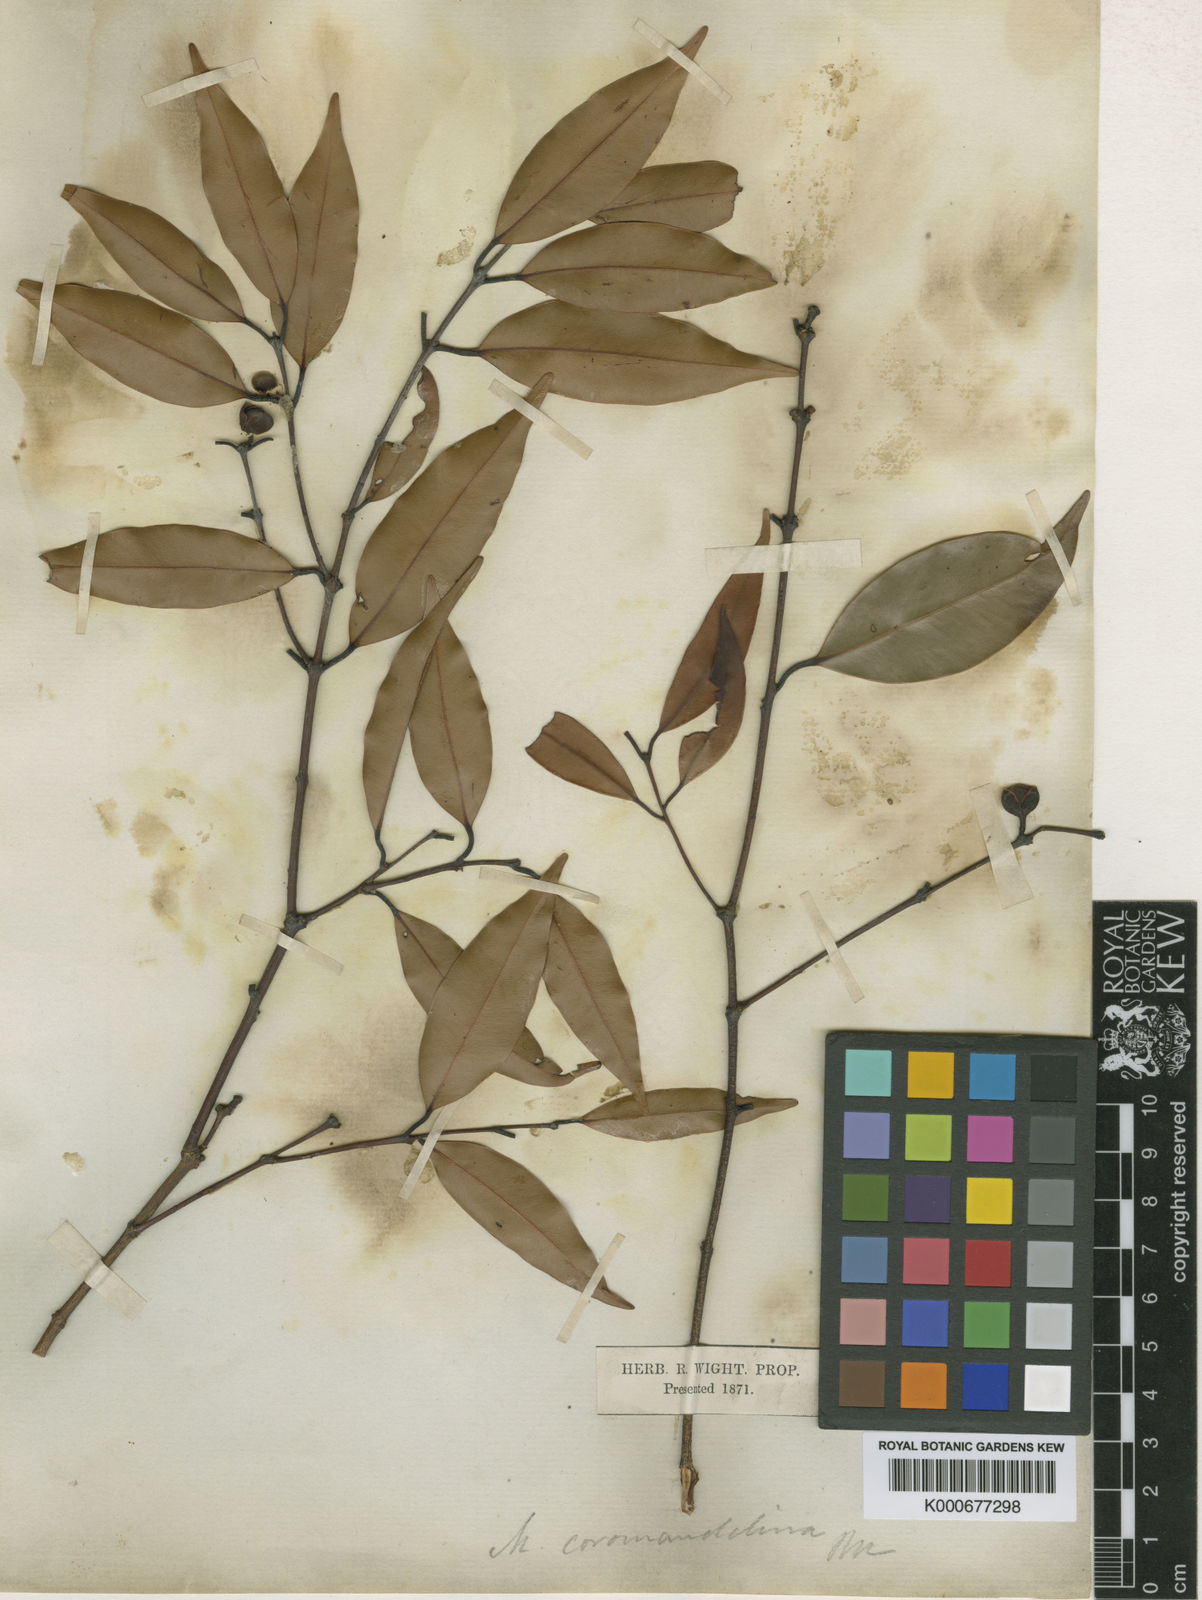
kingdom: Plantae
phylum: Tracheophyta
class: Magnoliopsida
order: Malpighiales
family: Calophyllaceae
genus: Mesua
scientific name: Mesua
